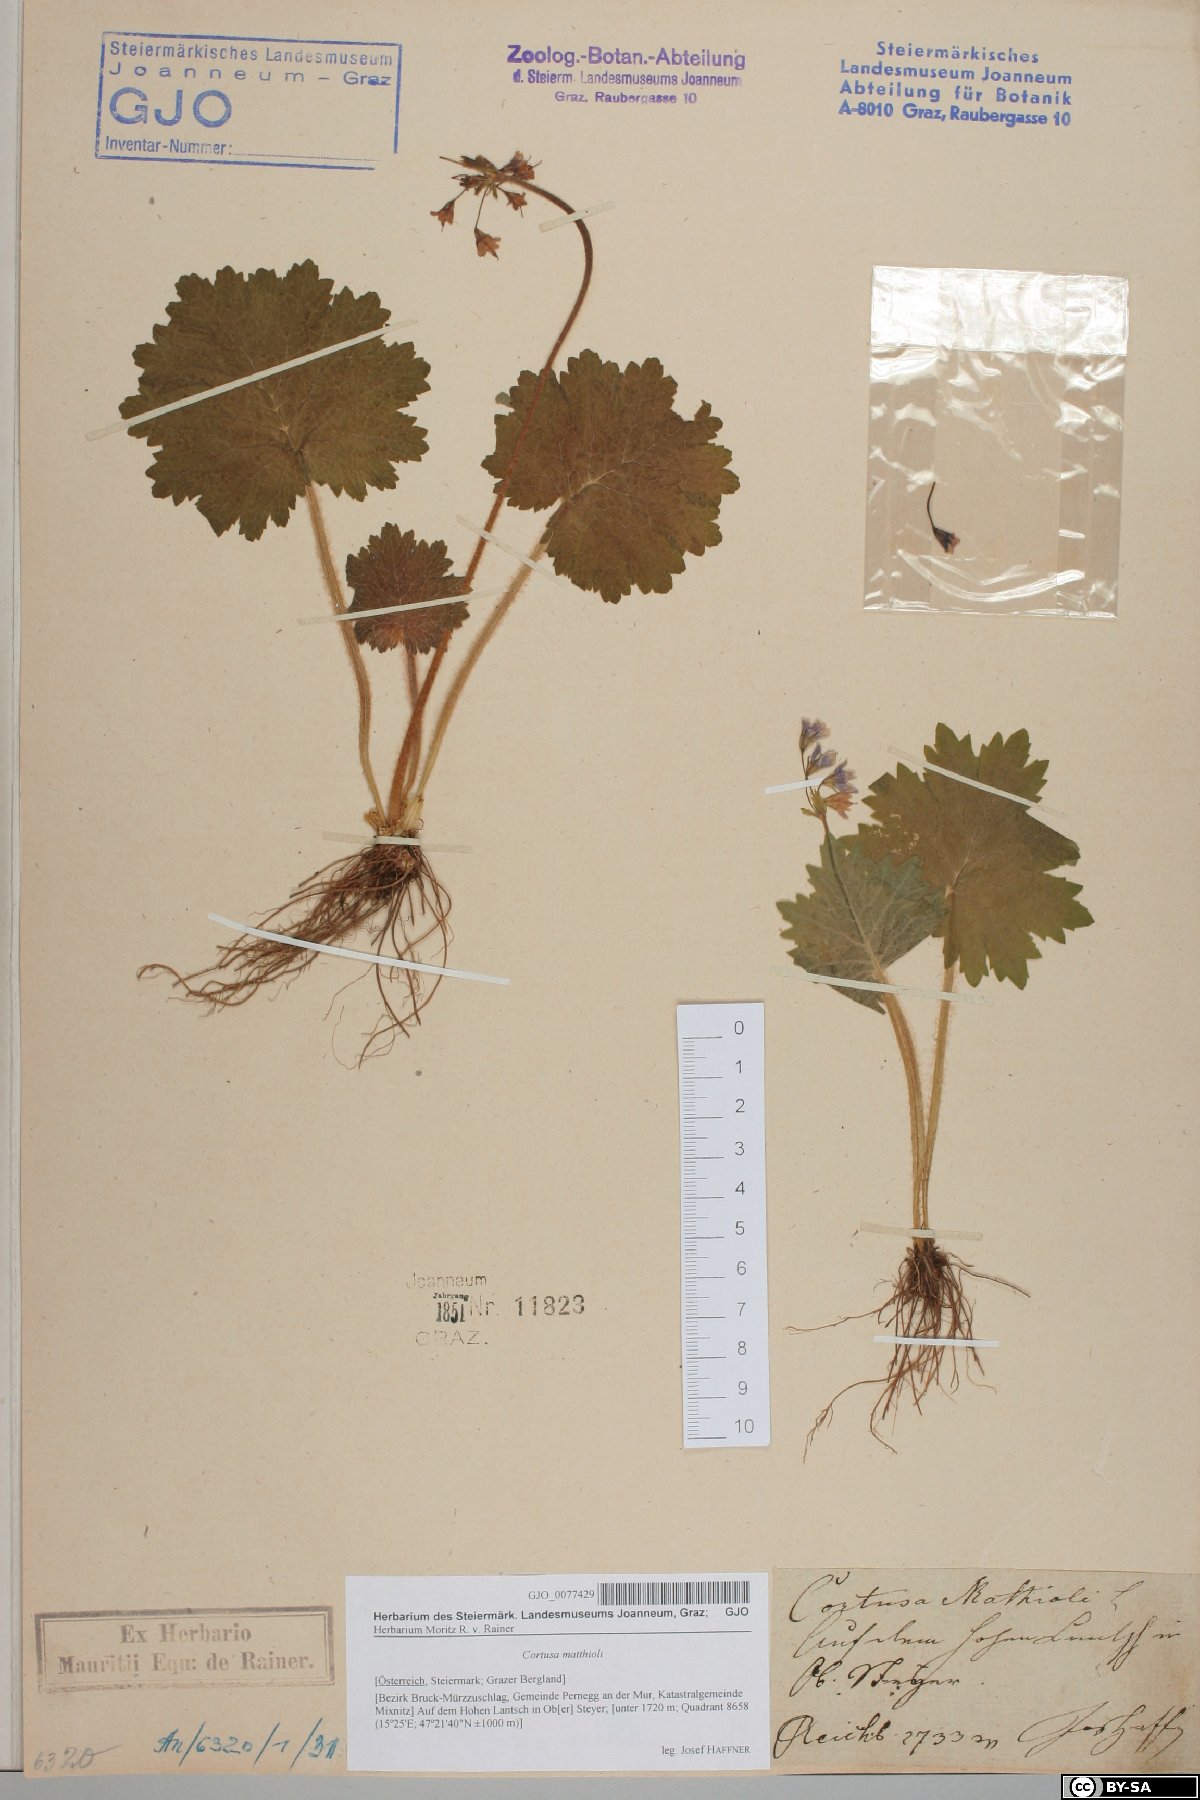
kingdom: Plantae
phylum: Tracheophyta
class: Magnoliopsida
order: Ericales
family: Primulaceae
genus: Primula
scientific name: Primula matthioli
